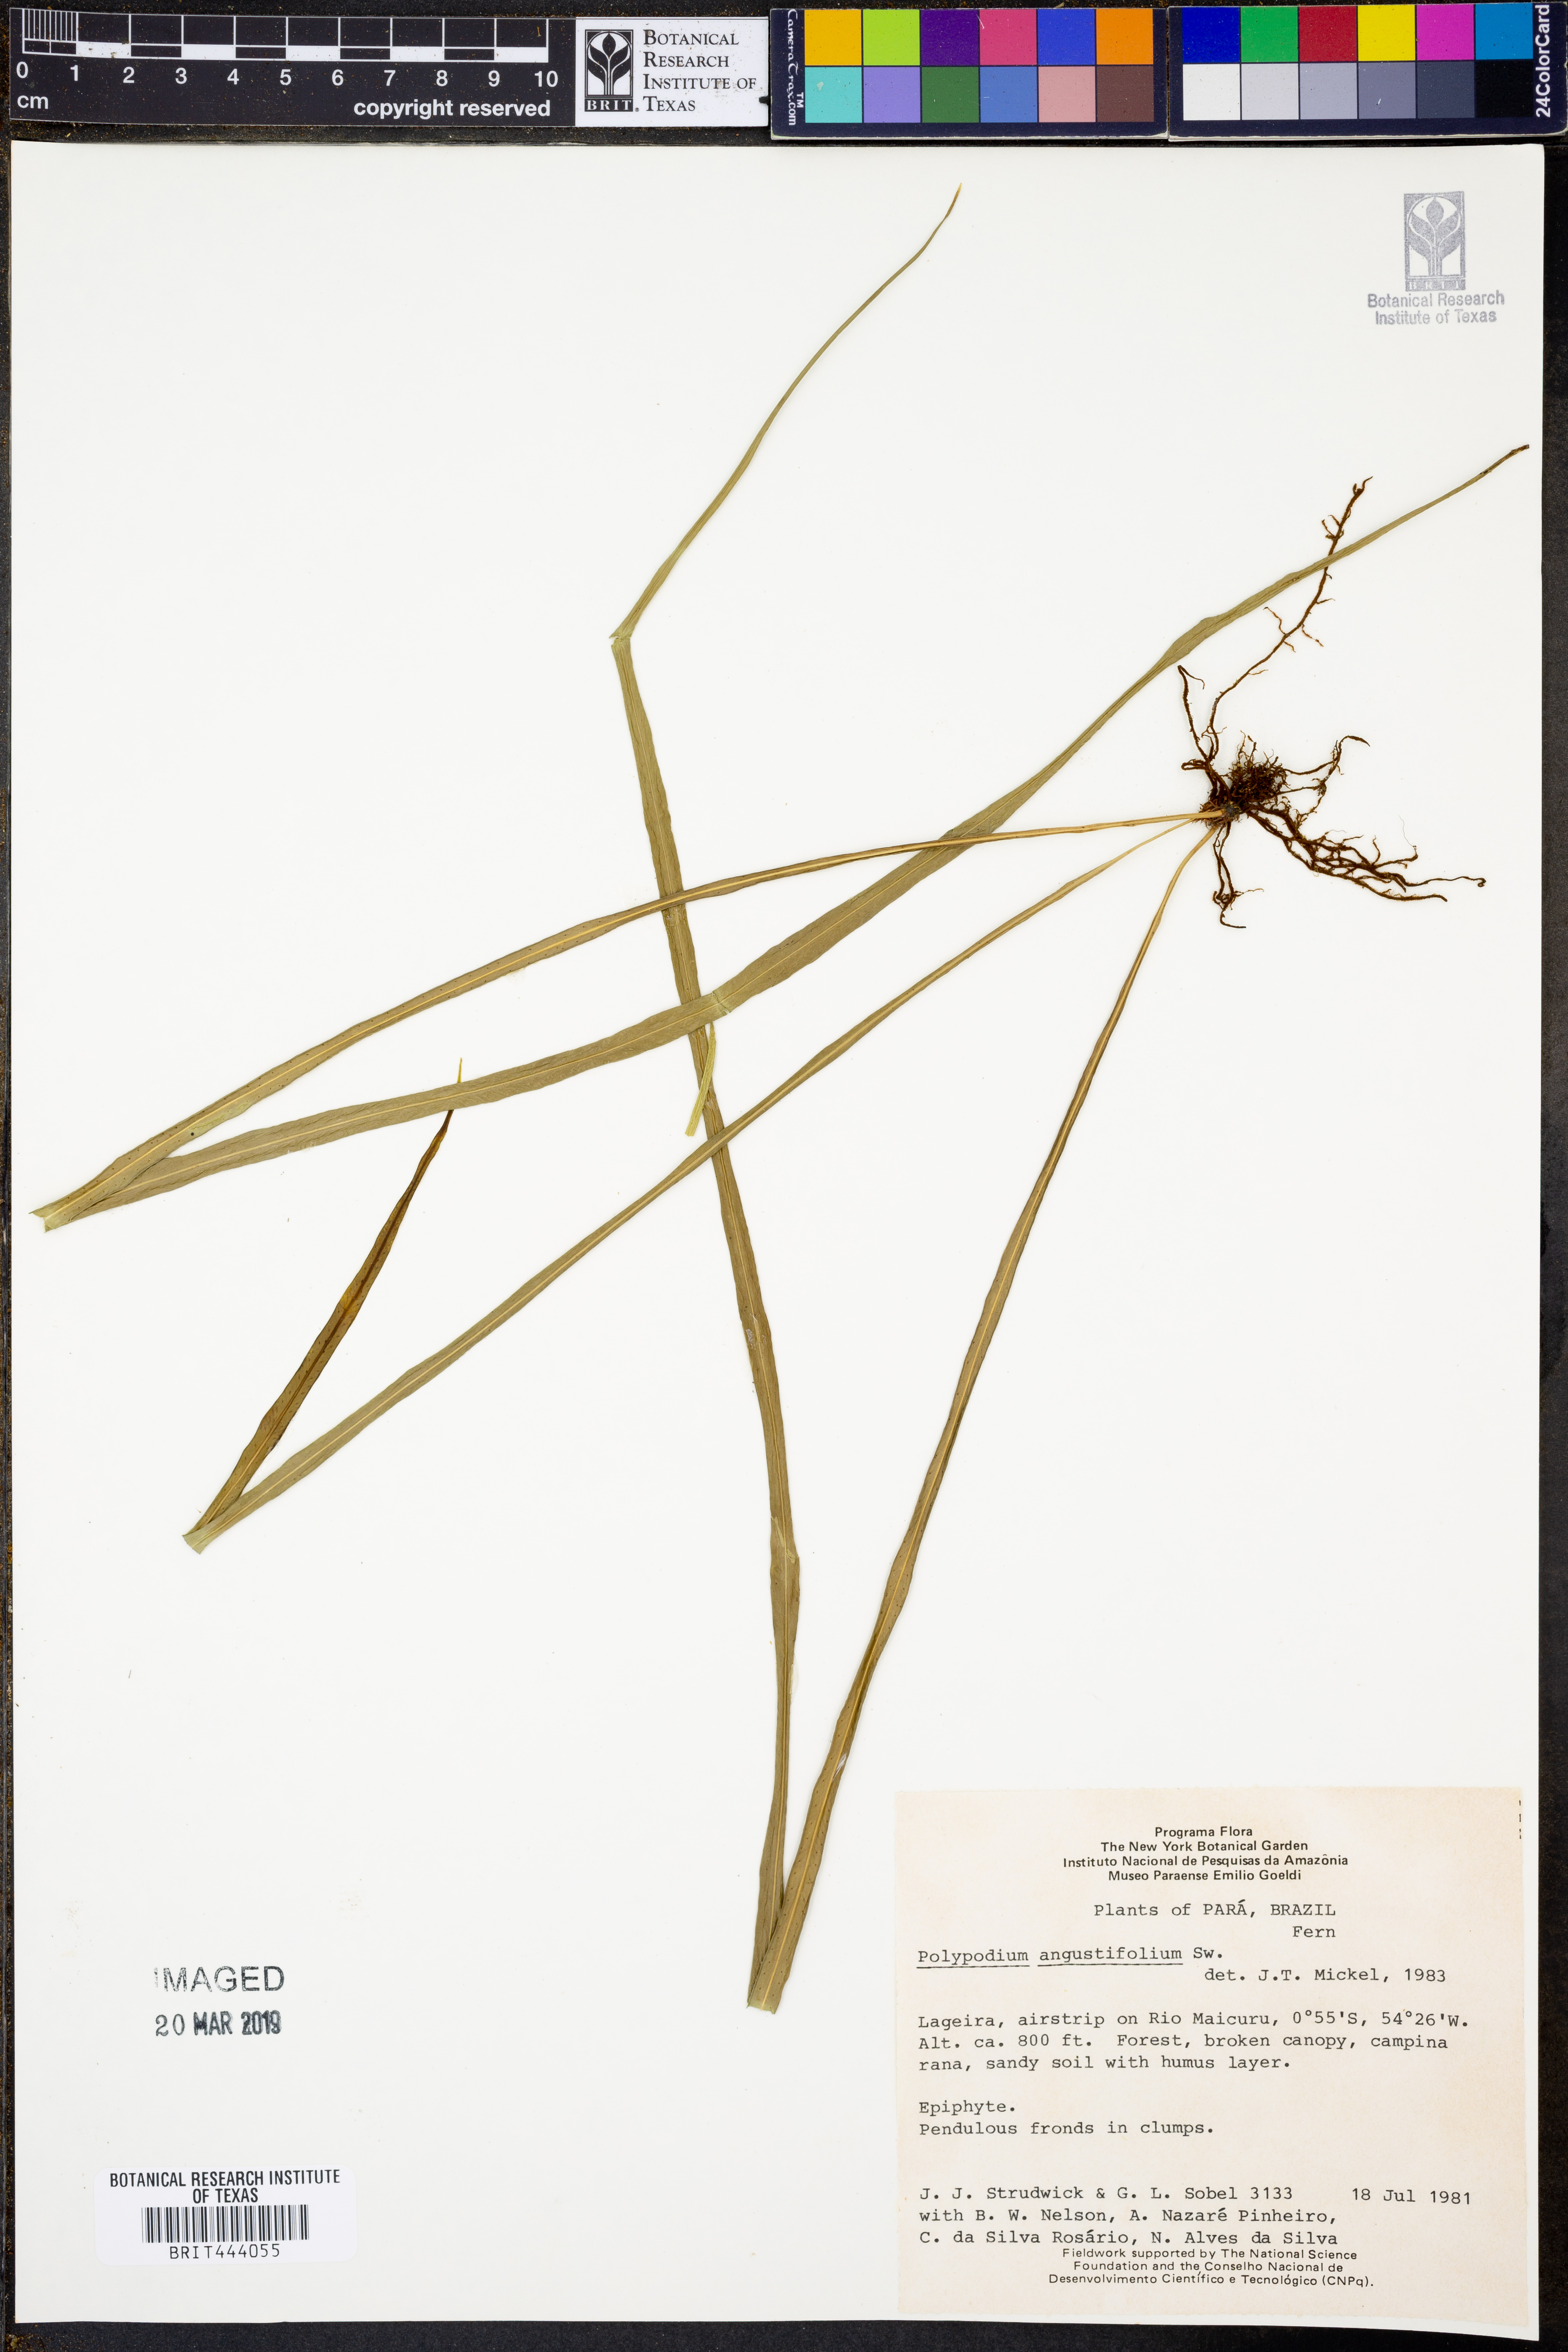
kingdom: Plantae
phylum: Tracheophyta
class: Polypodiopsida
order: Polypodiales
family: Polypodiaceae
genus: Campyloneurum
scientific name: Campyloneurum angustifolium
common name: Narrow-leaf strap fern
